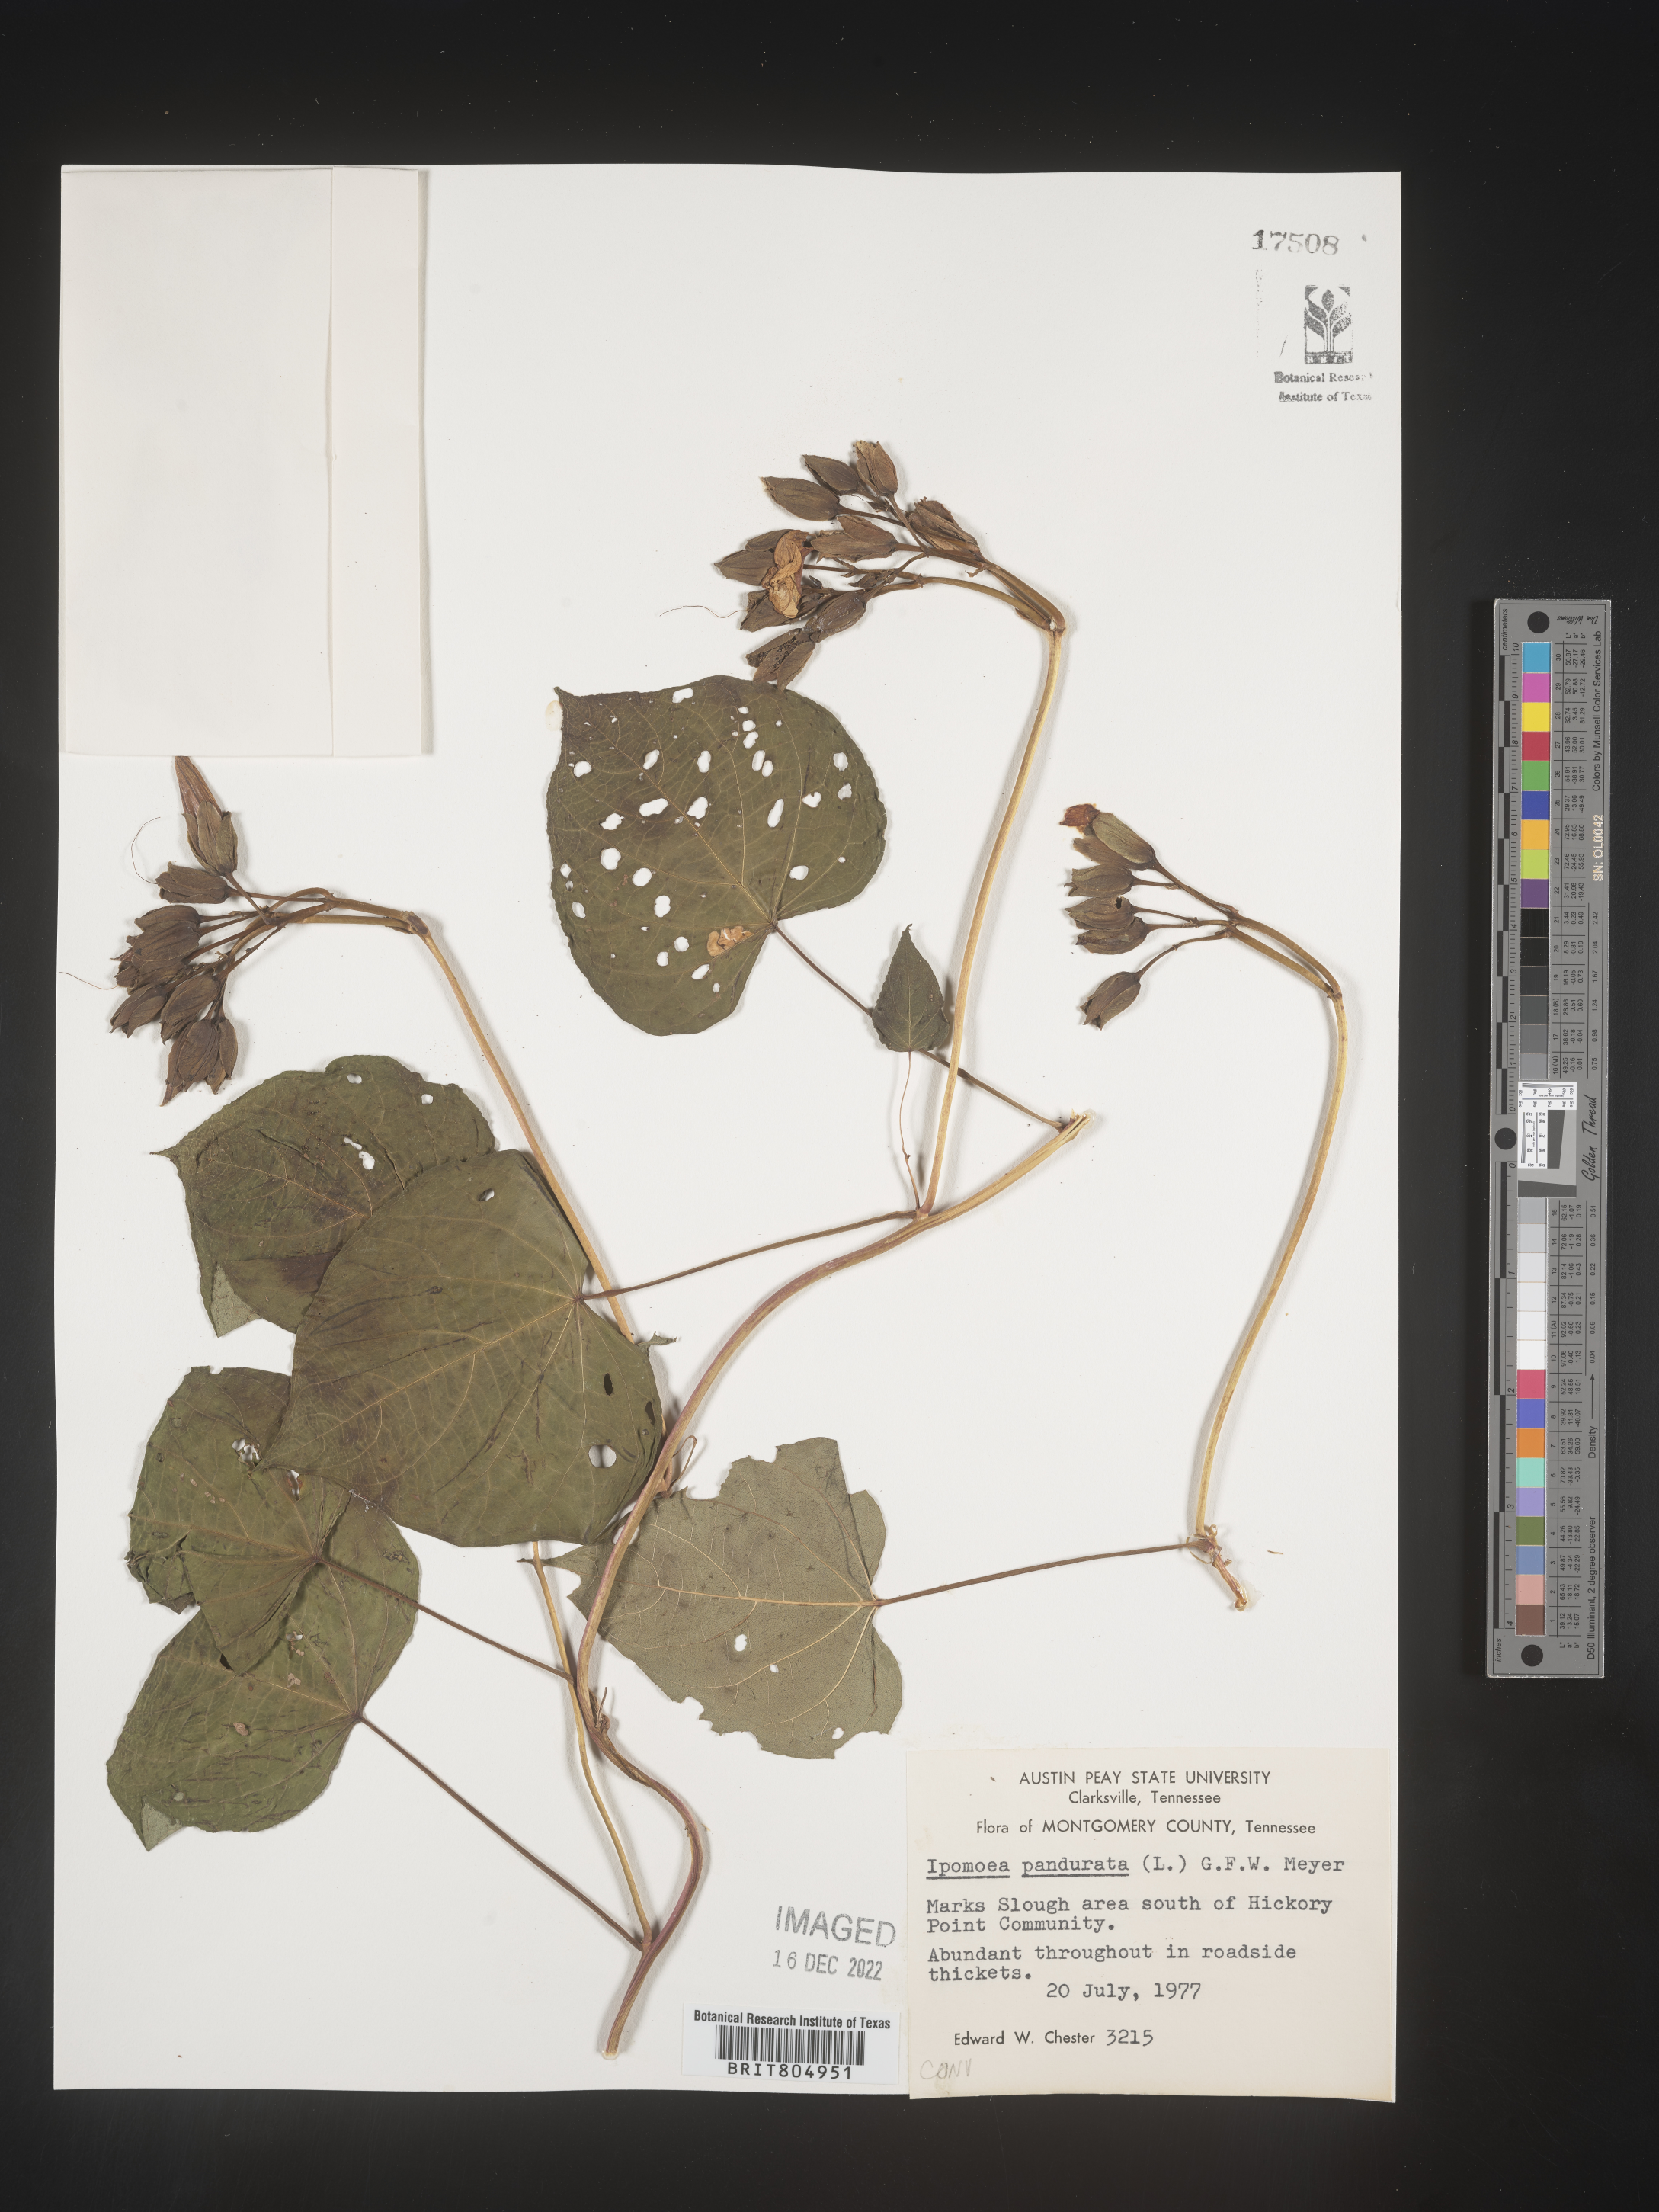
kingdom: Plantae
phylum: Tracheophyta
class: Magnoliopsida
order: Solanales
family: Convolvulaceae
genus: Ipomoea
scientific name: Ipomoea pandurata
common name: Man-of-the-earth
